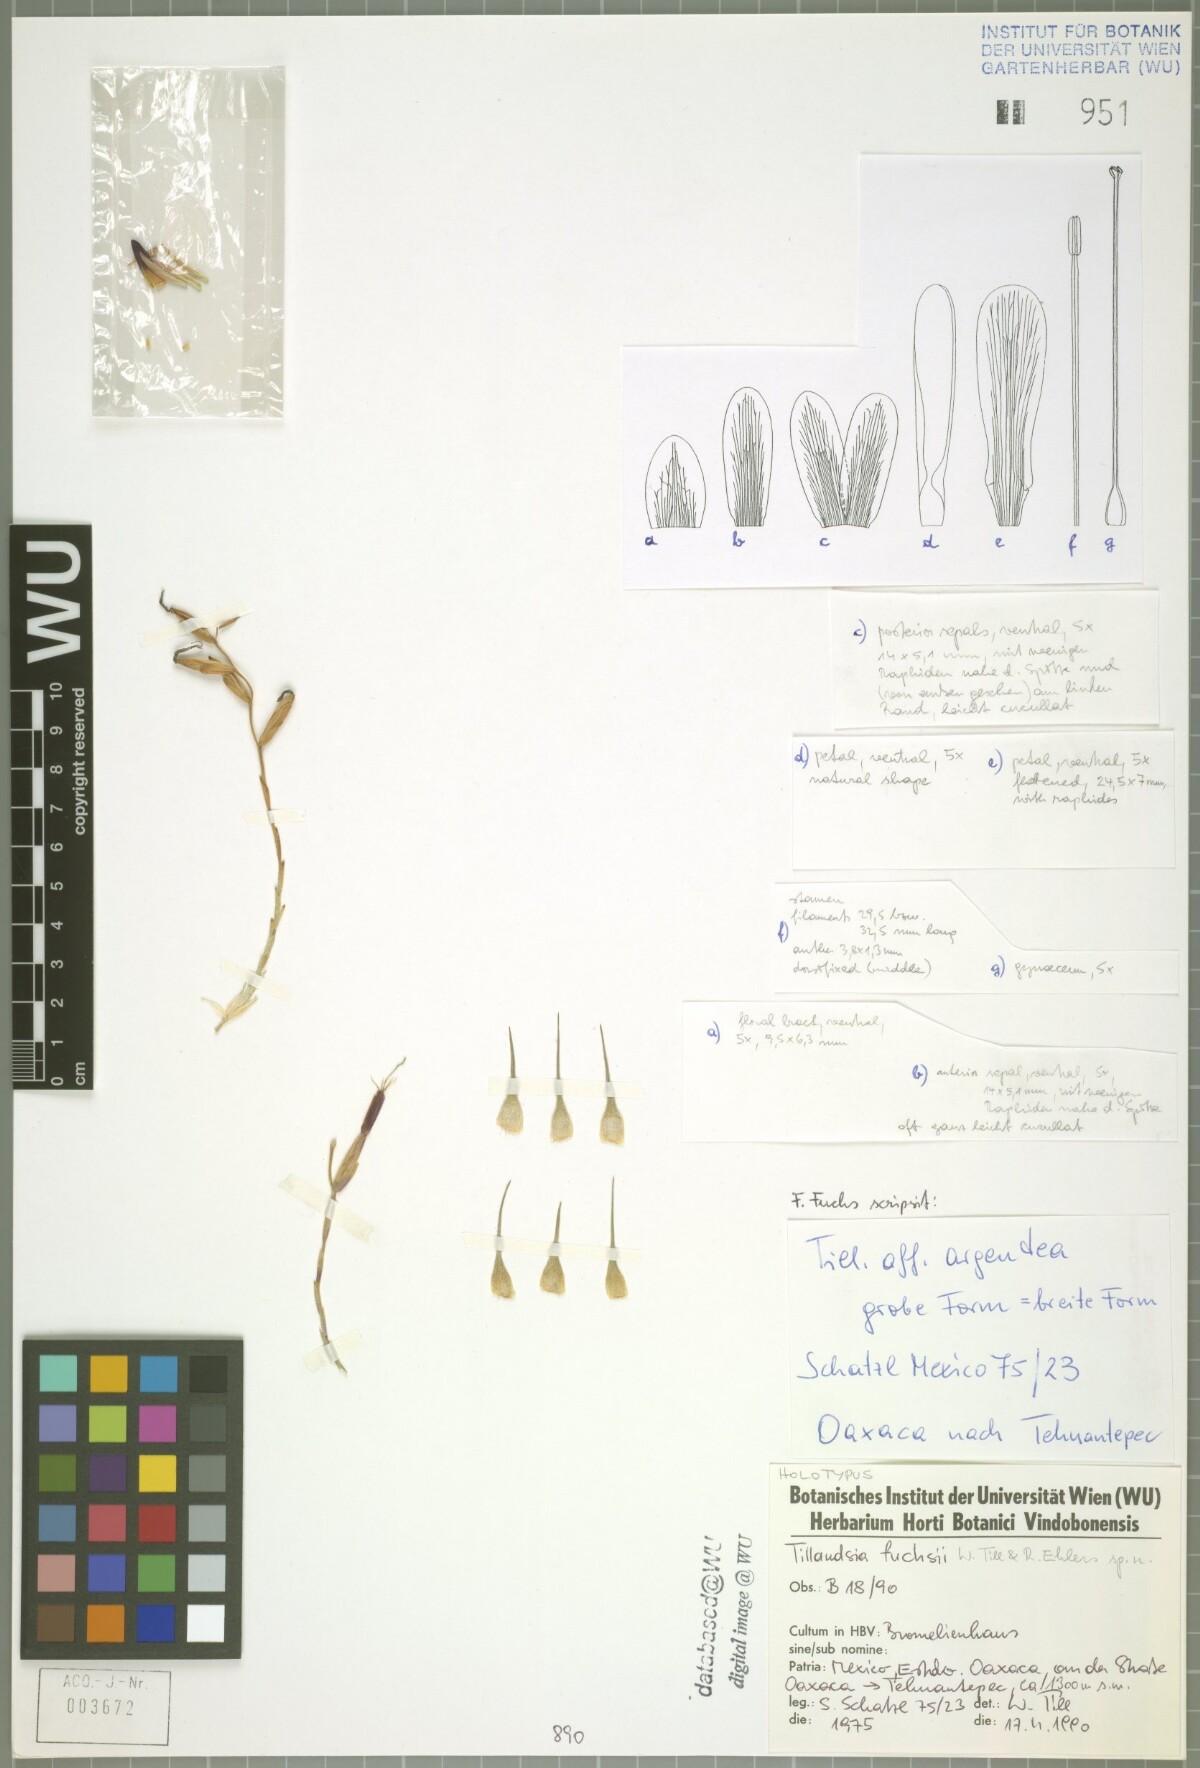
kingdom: Plantae
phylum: Tracheophyta
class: Liliopsida
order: Poales
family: Bromeliaceae
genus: Tillandsia
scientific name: Tillandsia fuchsii
